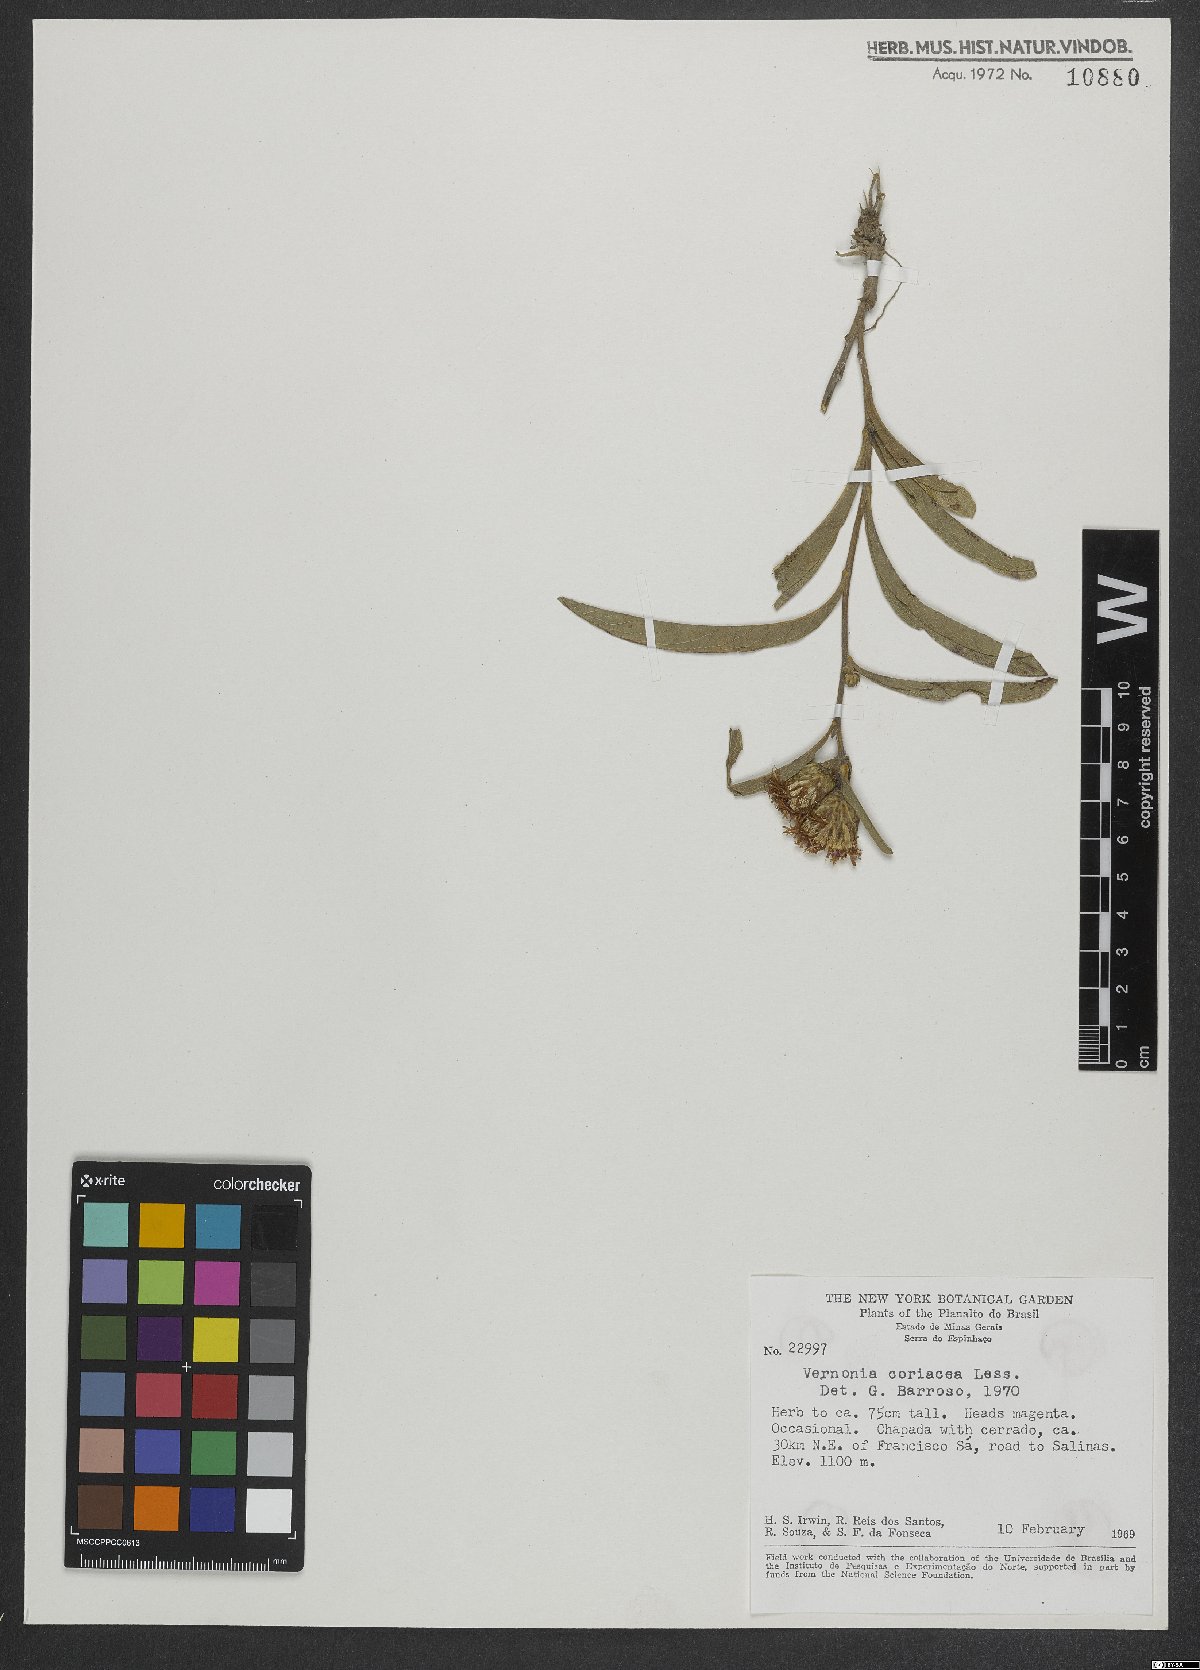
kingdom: Plantae
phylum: Tracheophyta
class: Magnoliopsida
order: Asterales
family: Asteraceae
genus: Lessingianthus
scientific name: Lessingianthus coriaceus
